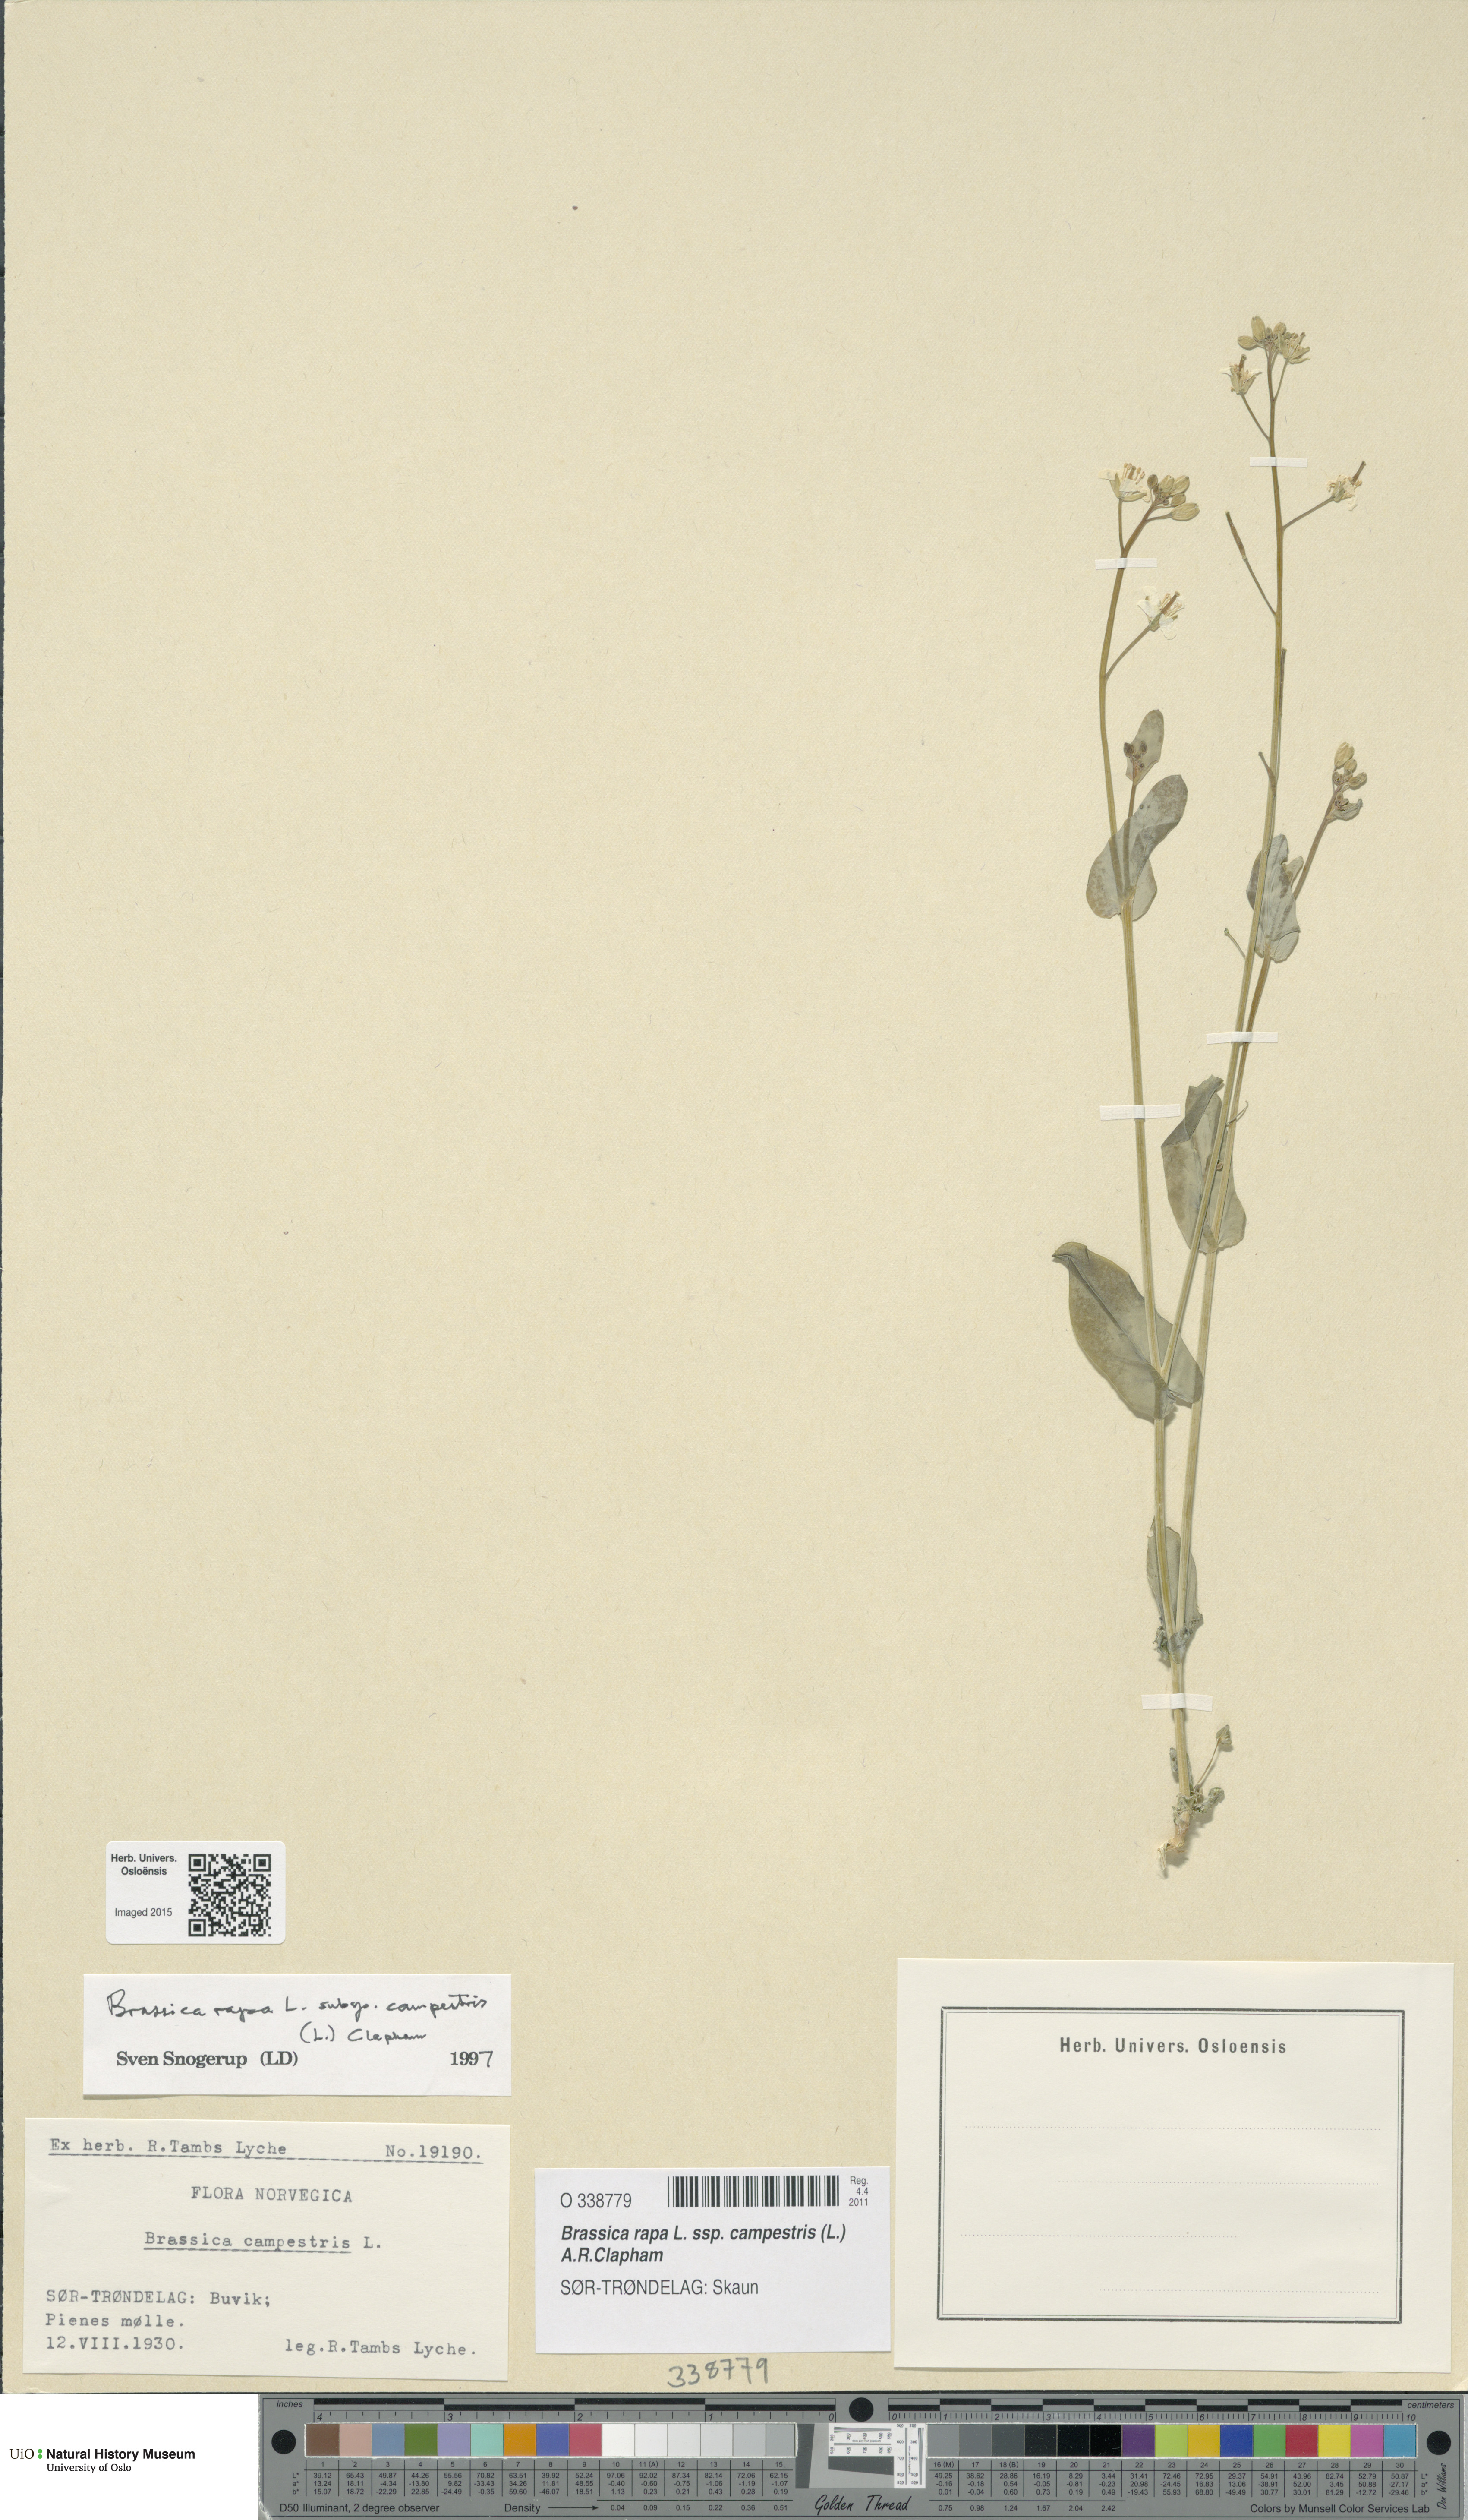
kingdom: Plantae
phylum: Tracheophyta
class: Magnoliopsida
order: Brassicales
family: Brassicaceae
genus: Brassica
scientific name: Brassica rapa
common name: Field mustard
